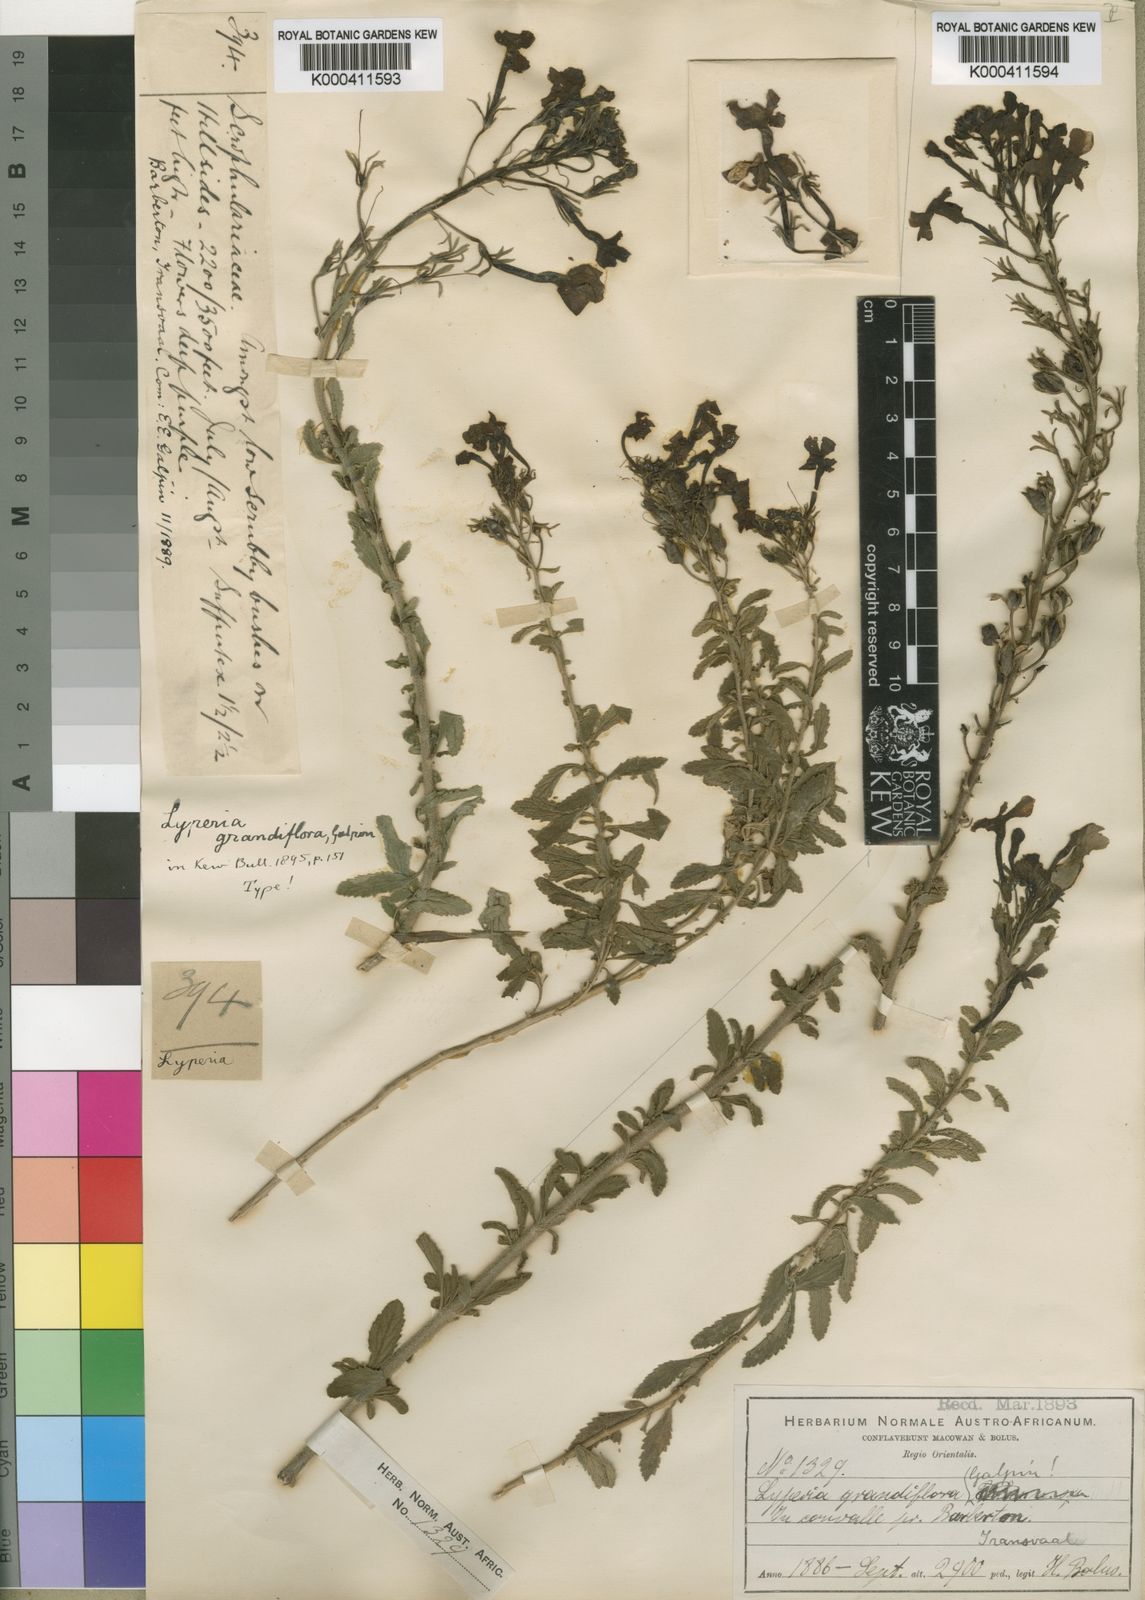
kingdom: Plantae
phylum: Tracheophyta
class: Magnoliopsida
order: Lamiales
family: Scrophulariaceae
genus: Jamesbrittenia
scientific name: Jamesbrittenia grandiflora
